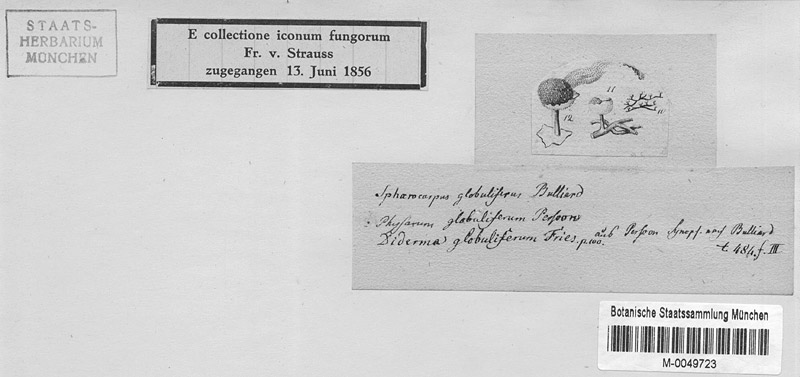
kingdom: Protozoa
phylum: Mycetozoa
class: Myxomycetes
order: Physarales
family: Physaraceae
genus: Physarum
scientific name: Physarum globuliferum
